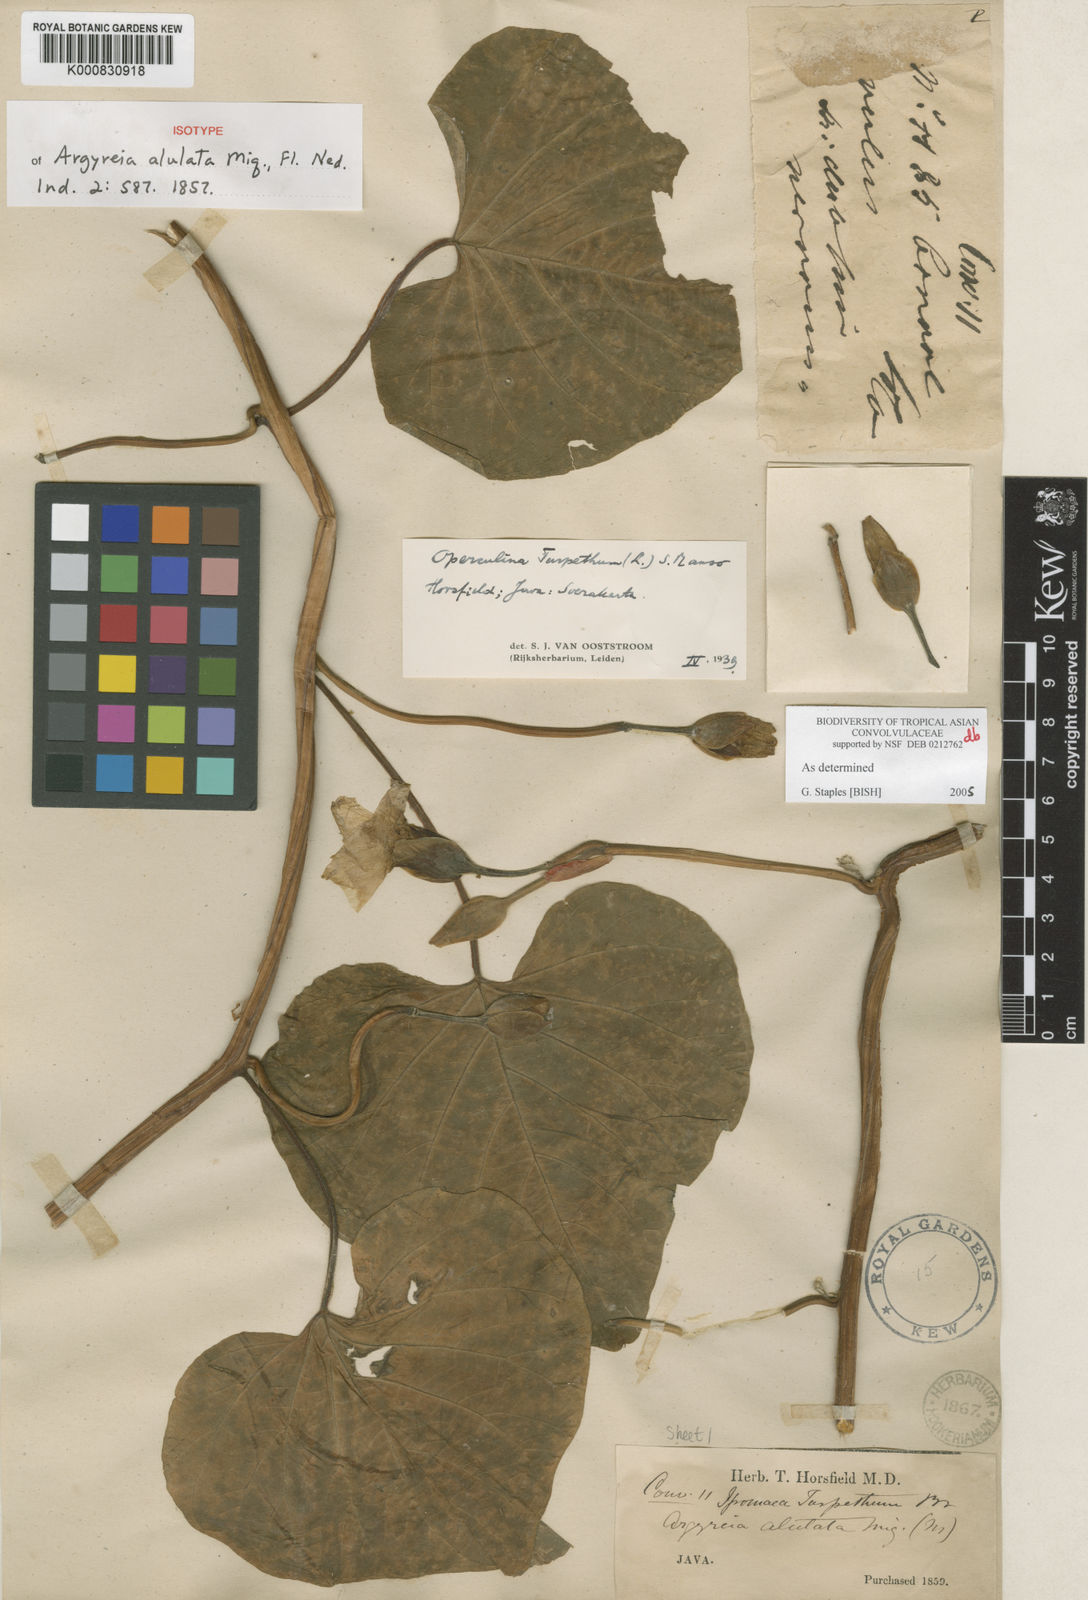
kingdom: Plantae
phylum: Tracheophyta
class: Magnoliopsida
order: Solanales
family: Convolvulaceae
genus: Operculina
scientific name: Operculina turpethum
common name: Transparent wood-rose
